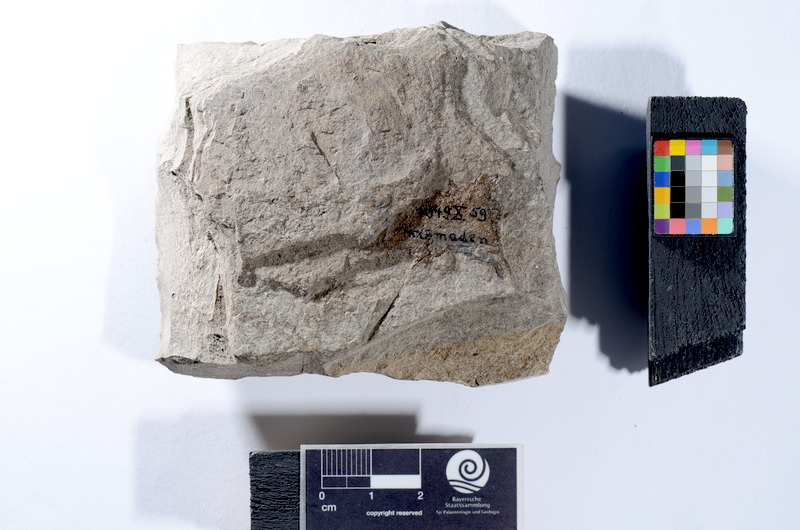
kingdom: Animalia
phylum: Chordata
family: Leptolepididae
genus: Leptolepis
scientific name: Leptolepis coryphaenoides
